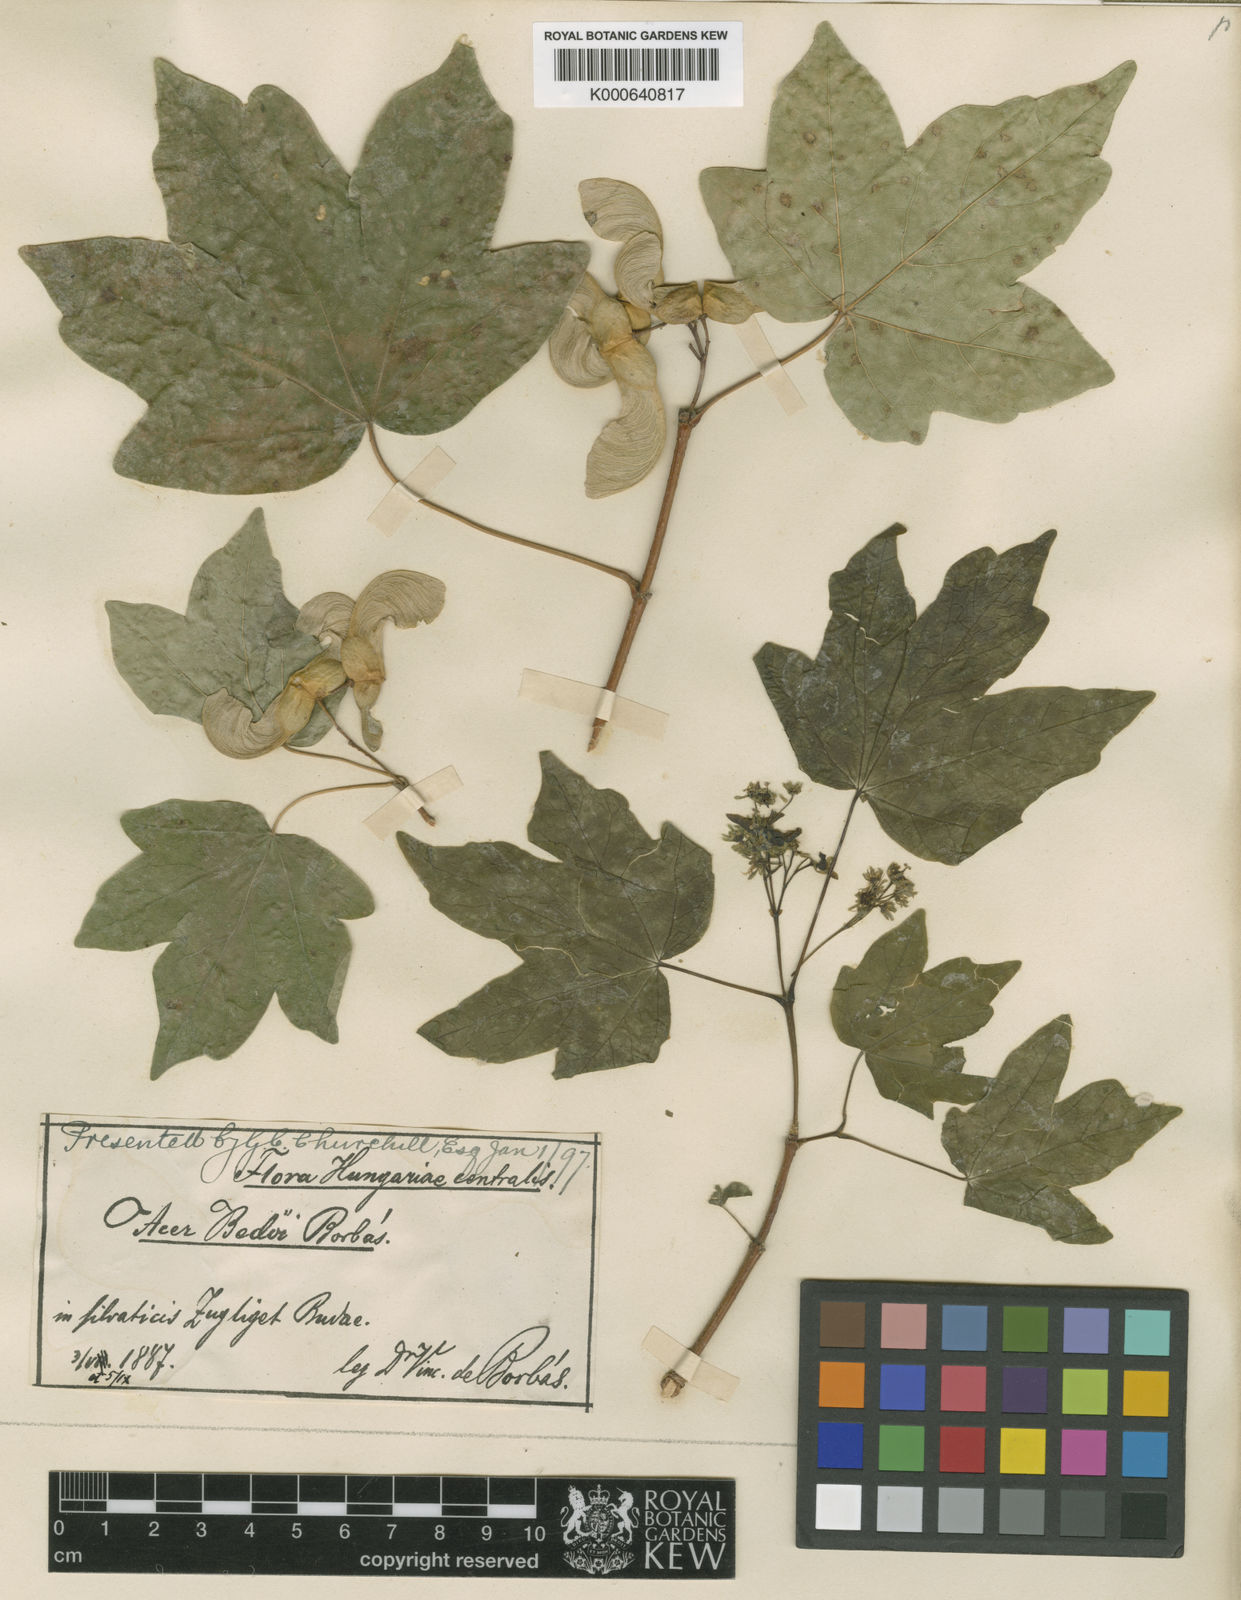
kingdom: Plantae
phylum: Tracheophyta
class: Magnoliopsida
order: Sapindales
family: Sapindaceae
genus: Acer
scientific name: Acer
